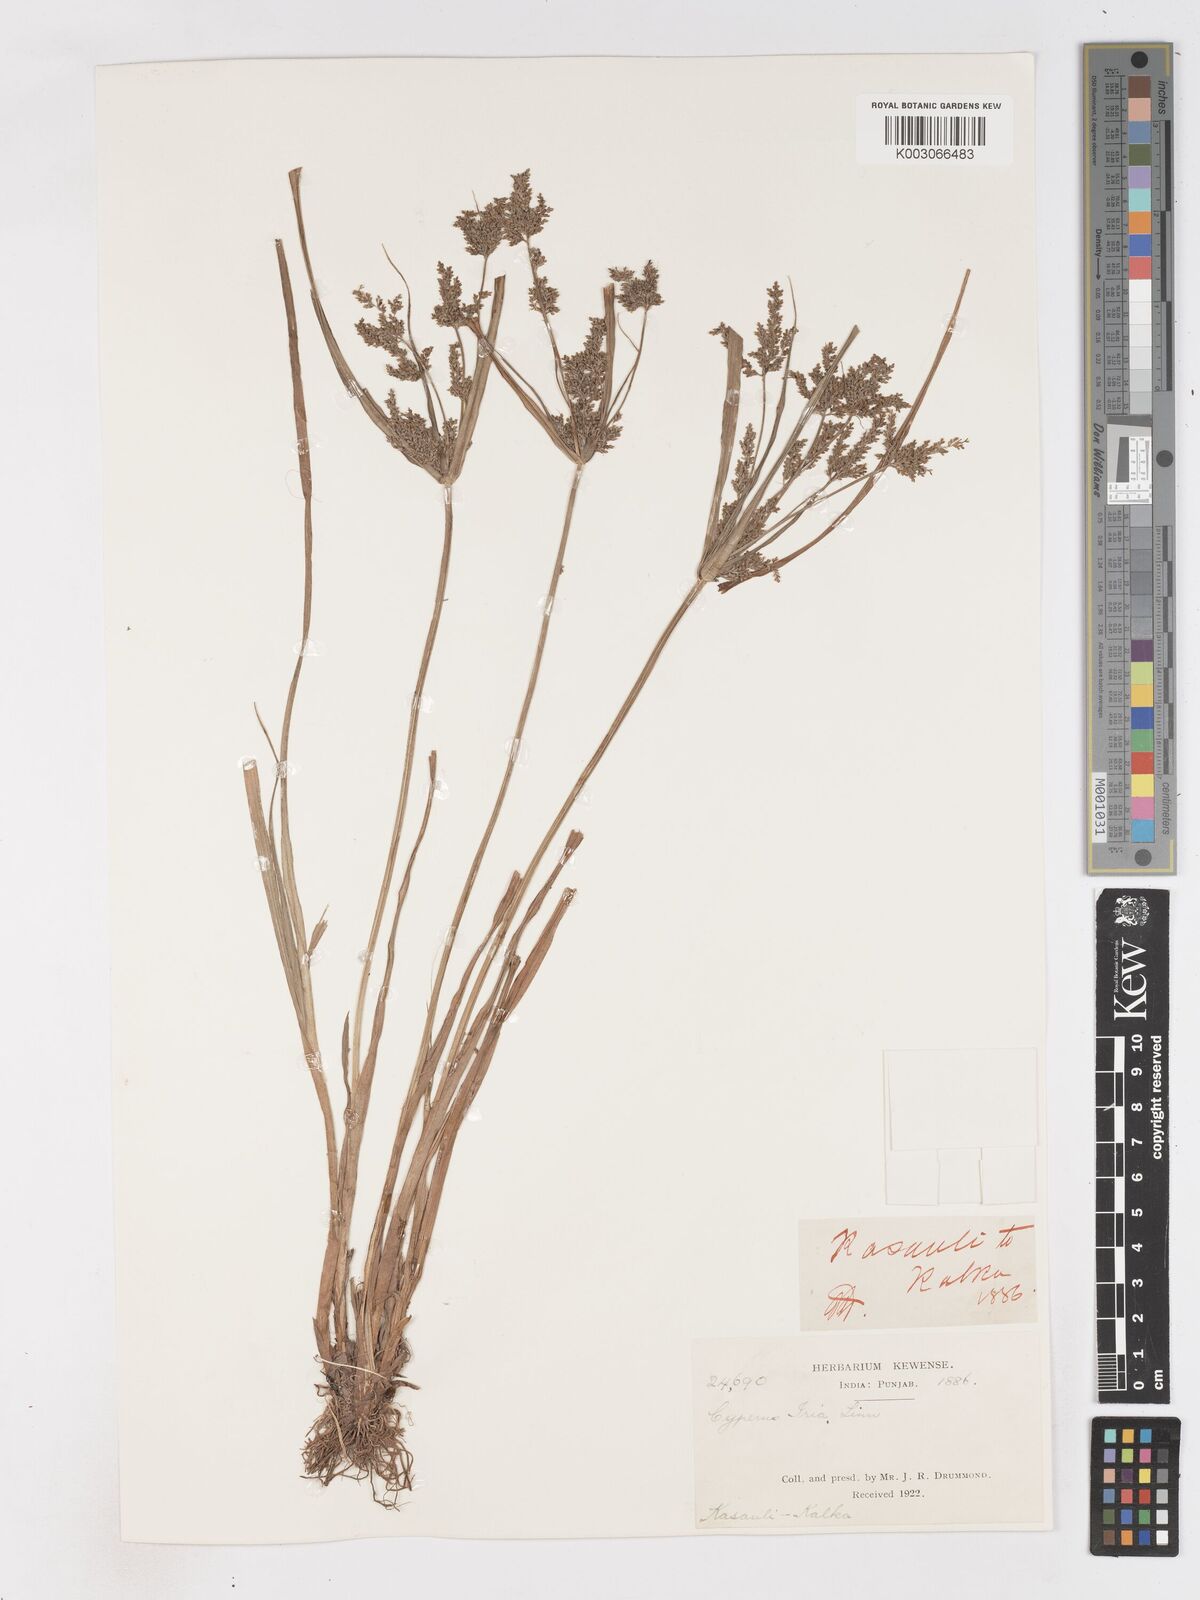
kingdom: Plantae
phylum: Tracheophyta
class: Liliopsida
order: Poales
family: Cyperaceae
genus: Cyperus
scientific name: Cyperus iria
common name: Ricefield flatsedge
